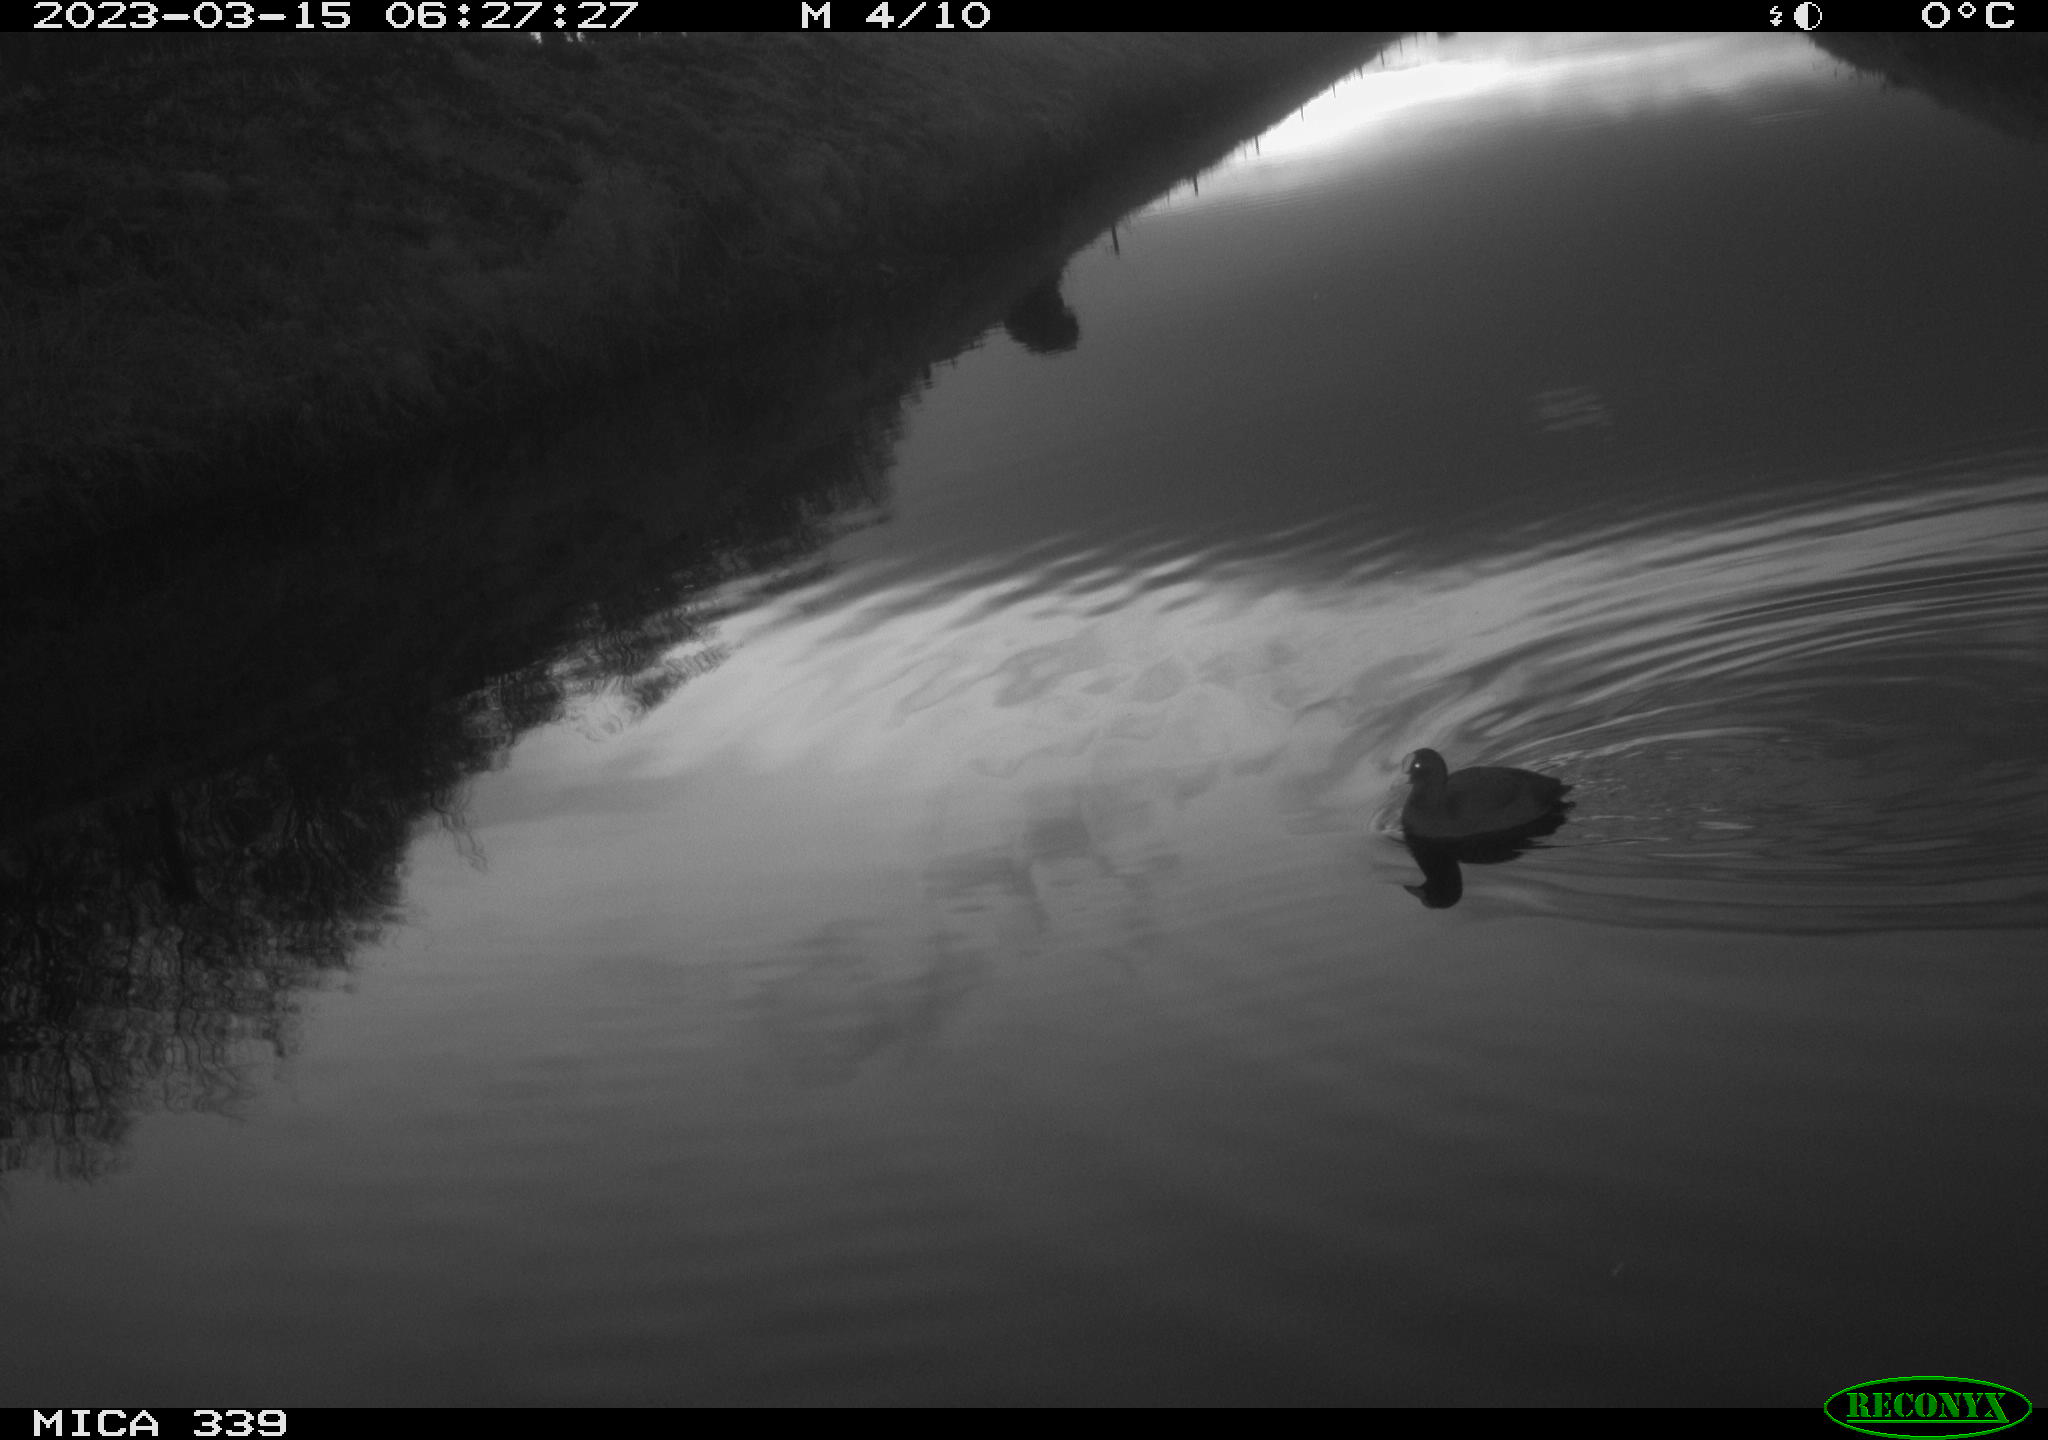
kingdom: Animalia
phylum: Chordata
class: Aves
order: Gruiformes
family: Rallidae
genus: Fulica
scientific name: Fulica atra
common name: Eurasian coot
